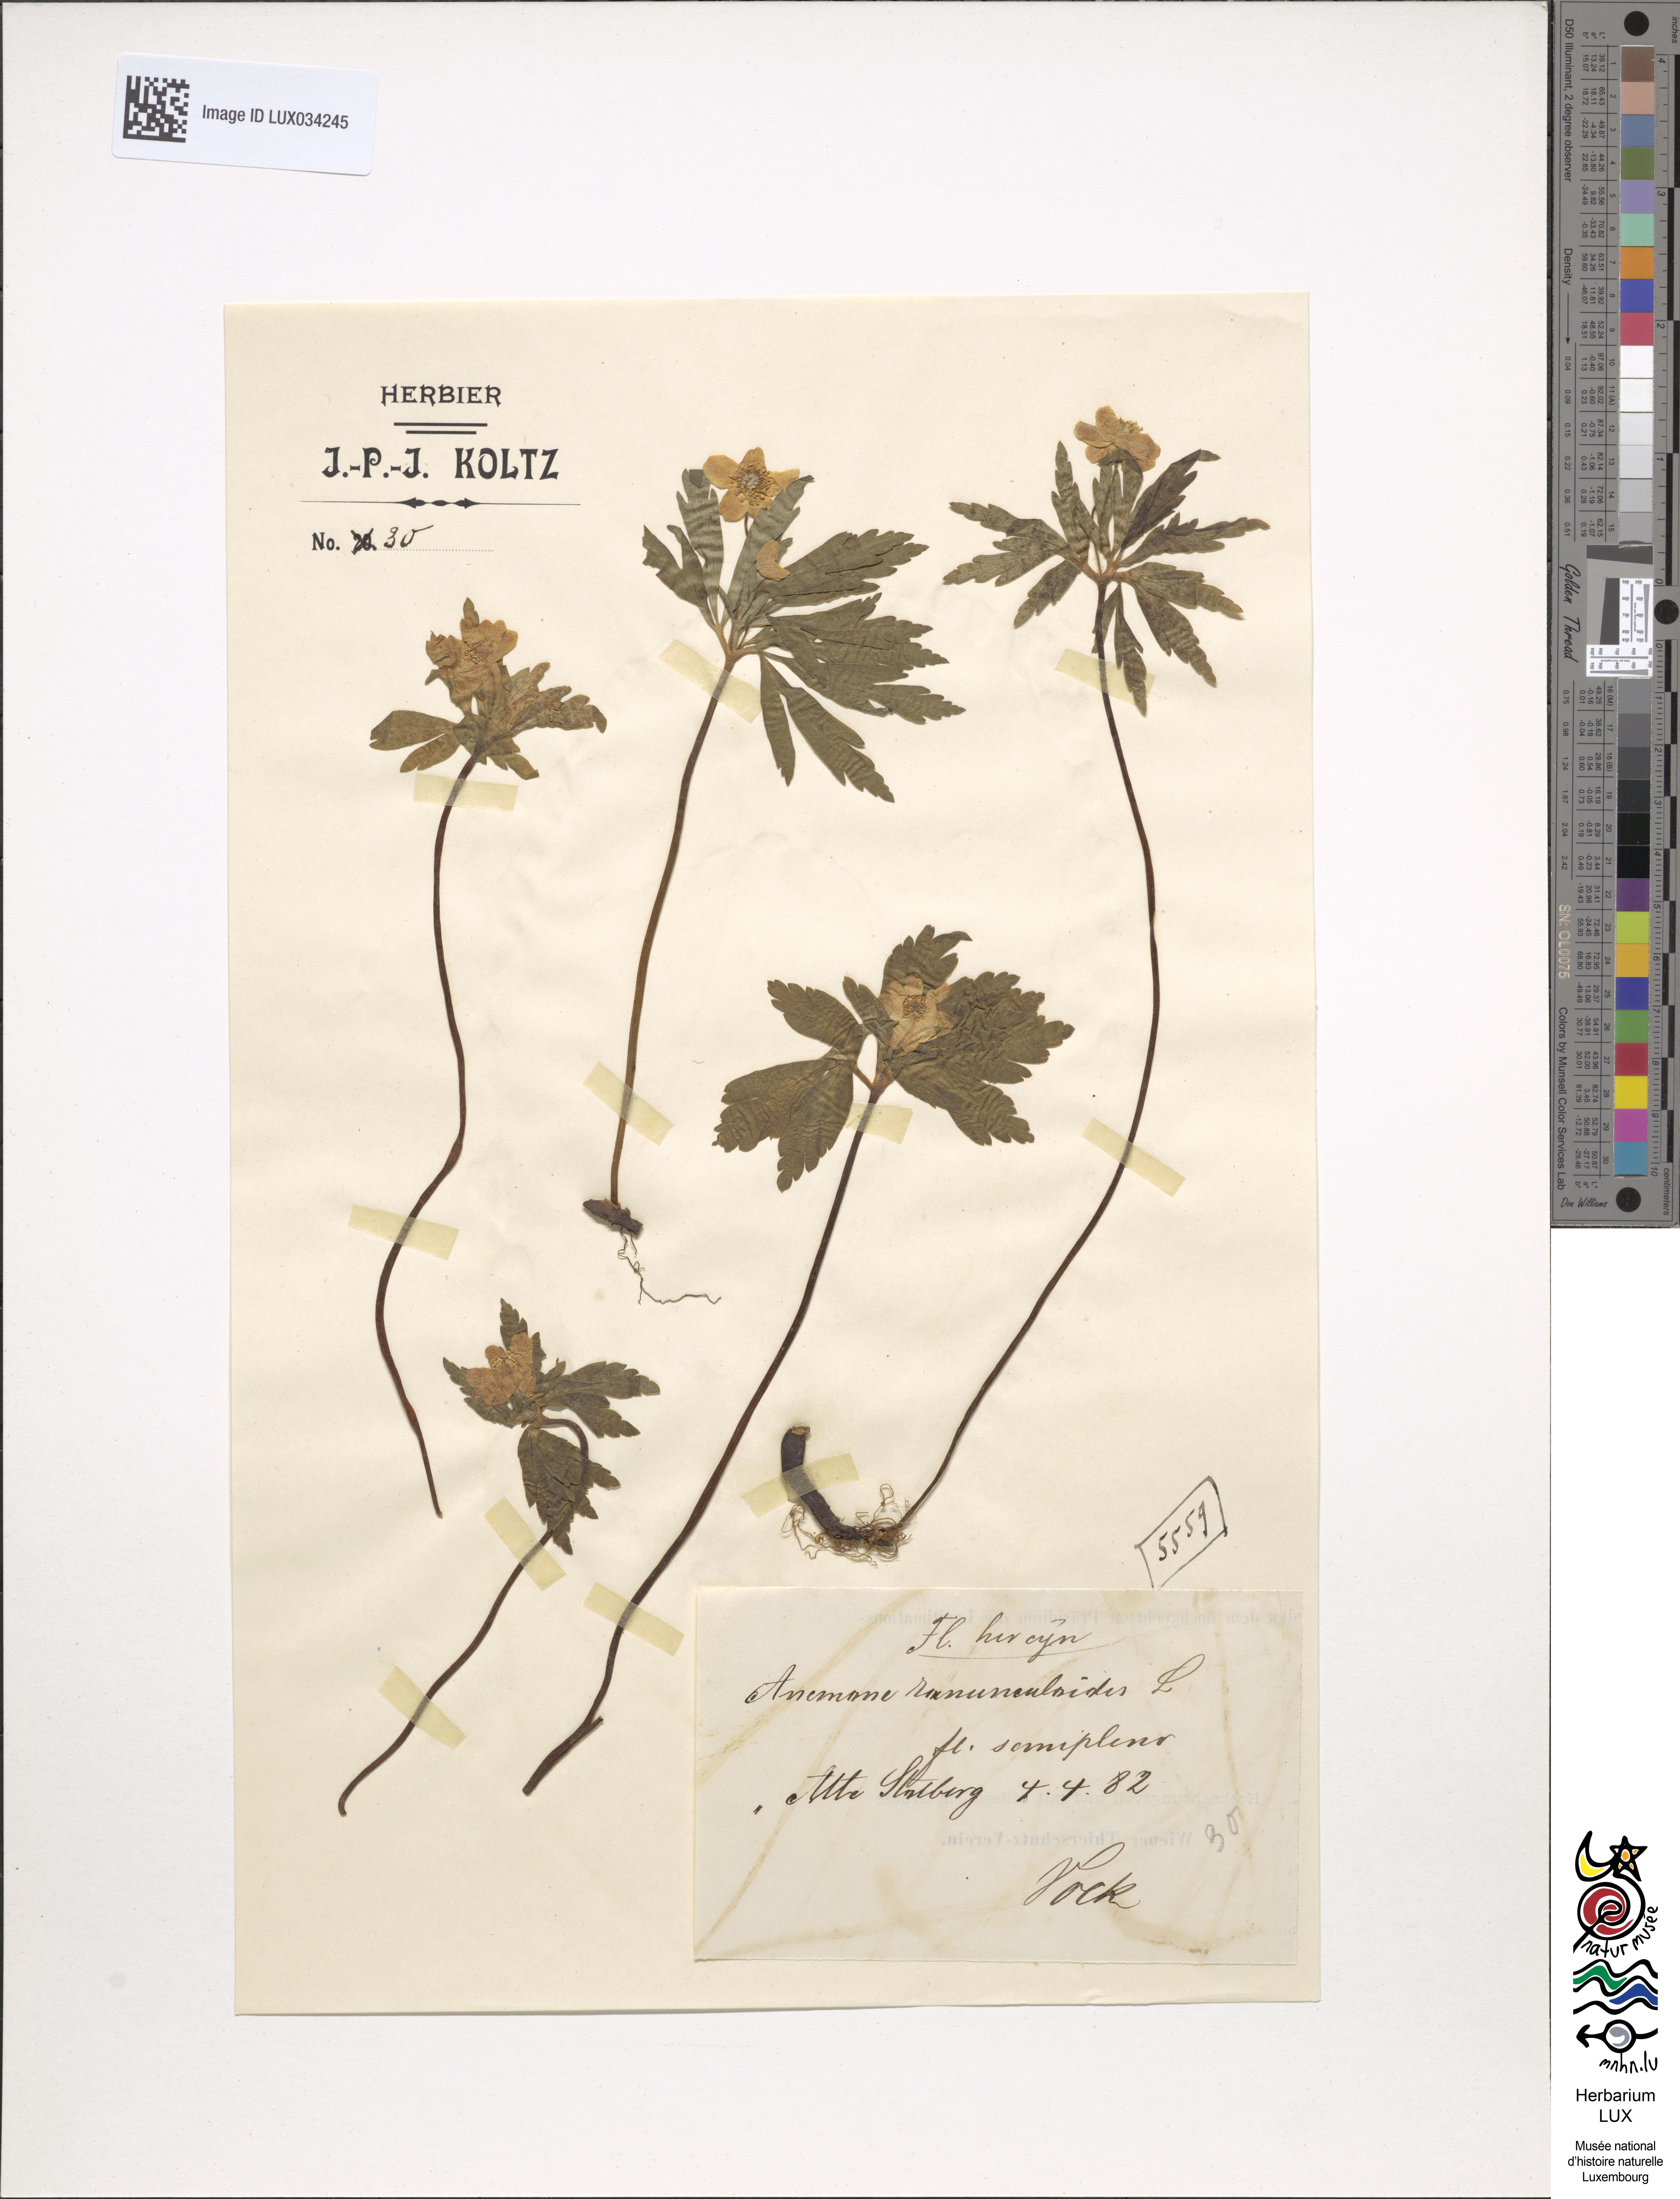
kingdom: Plantae
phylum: Tracheophyta
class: Magnoliopsida
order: Ranunculales
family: Ranunculaceae
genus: Anemone
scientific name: Anemone ranunculoides
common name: Yellow anemone
